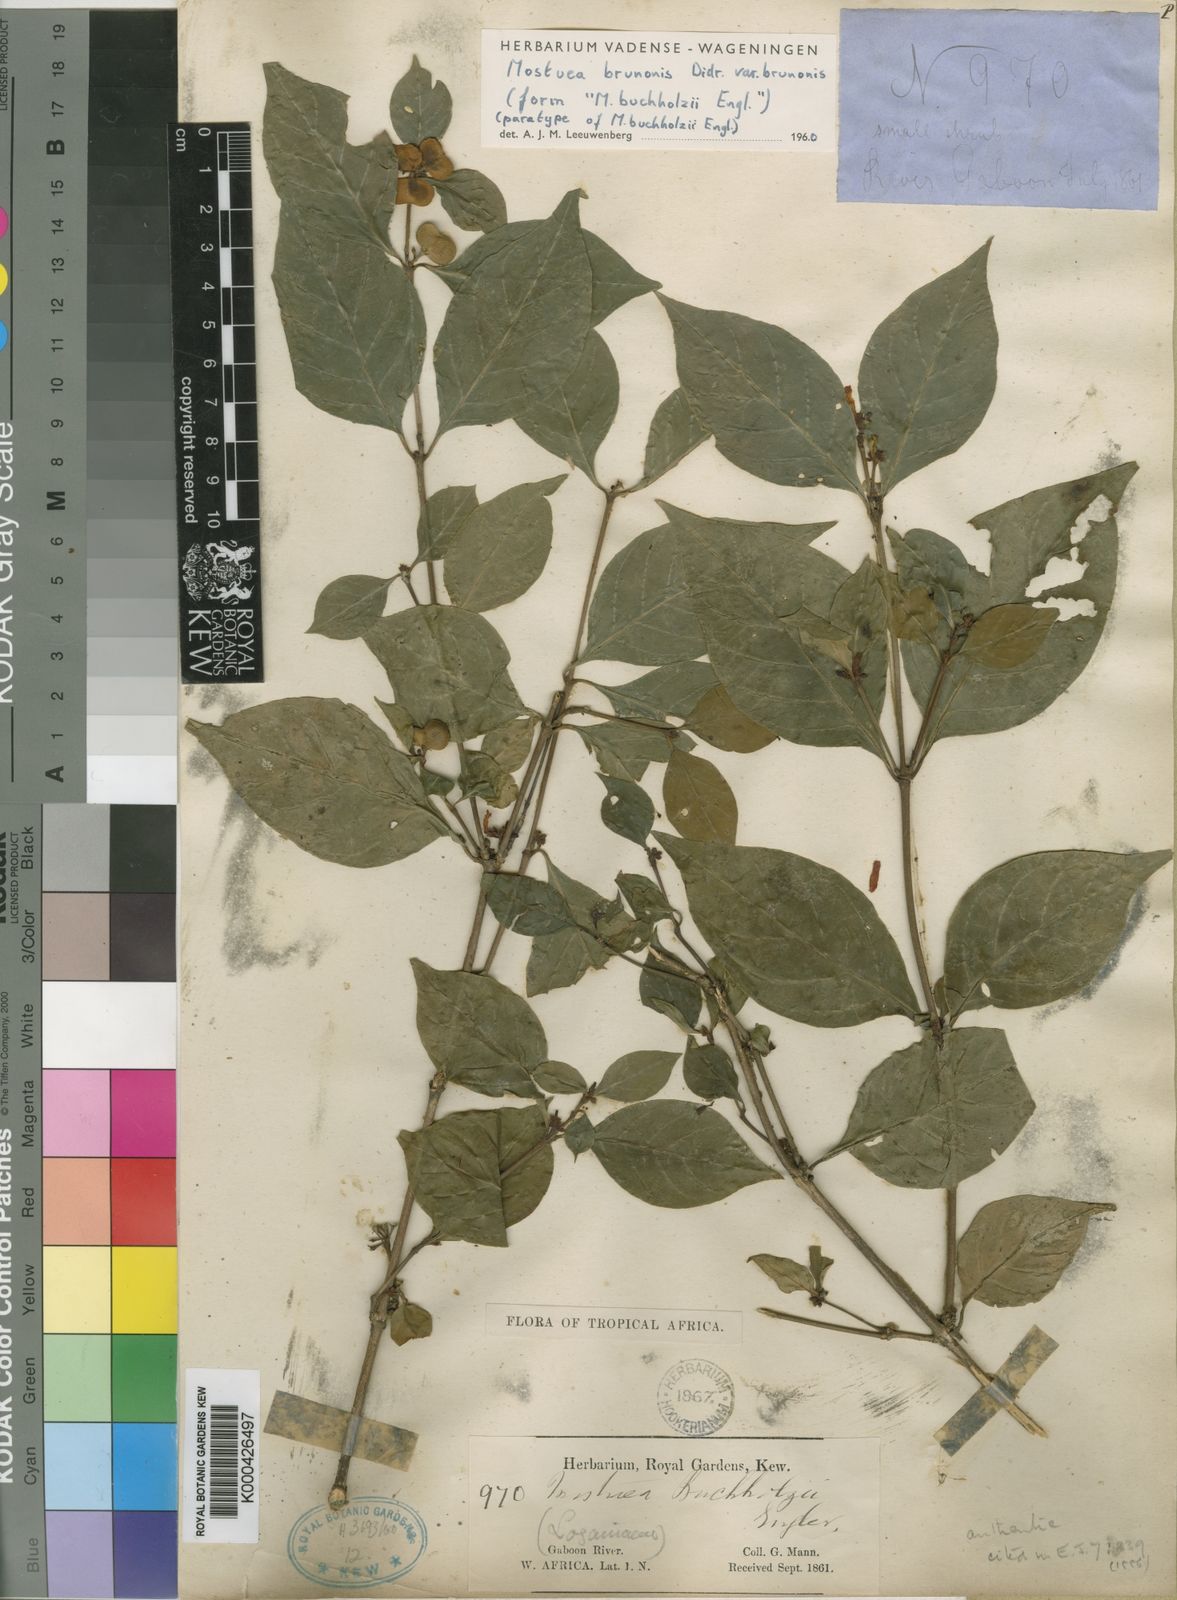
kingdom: Plantae
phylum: Tracheophyta
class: Magnoliopsida
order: Gentianales
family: Gelsemiaceae
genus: Mostuea
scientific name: Mostuea brunonis
